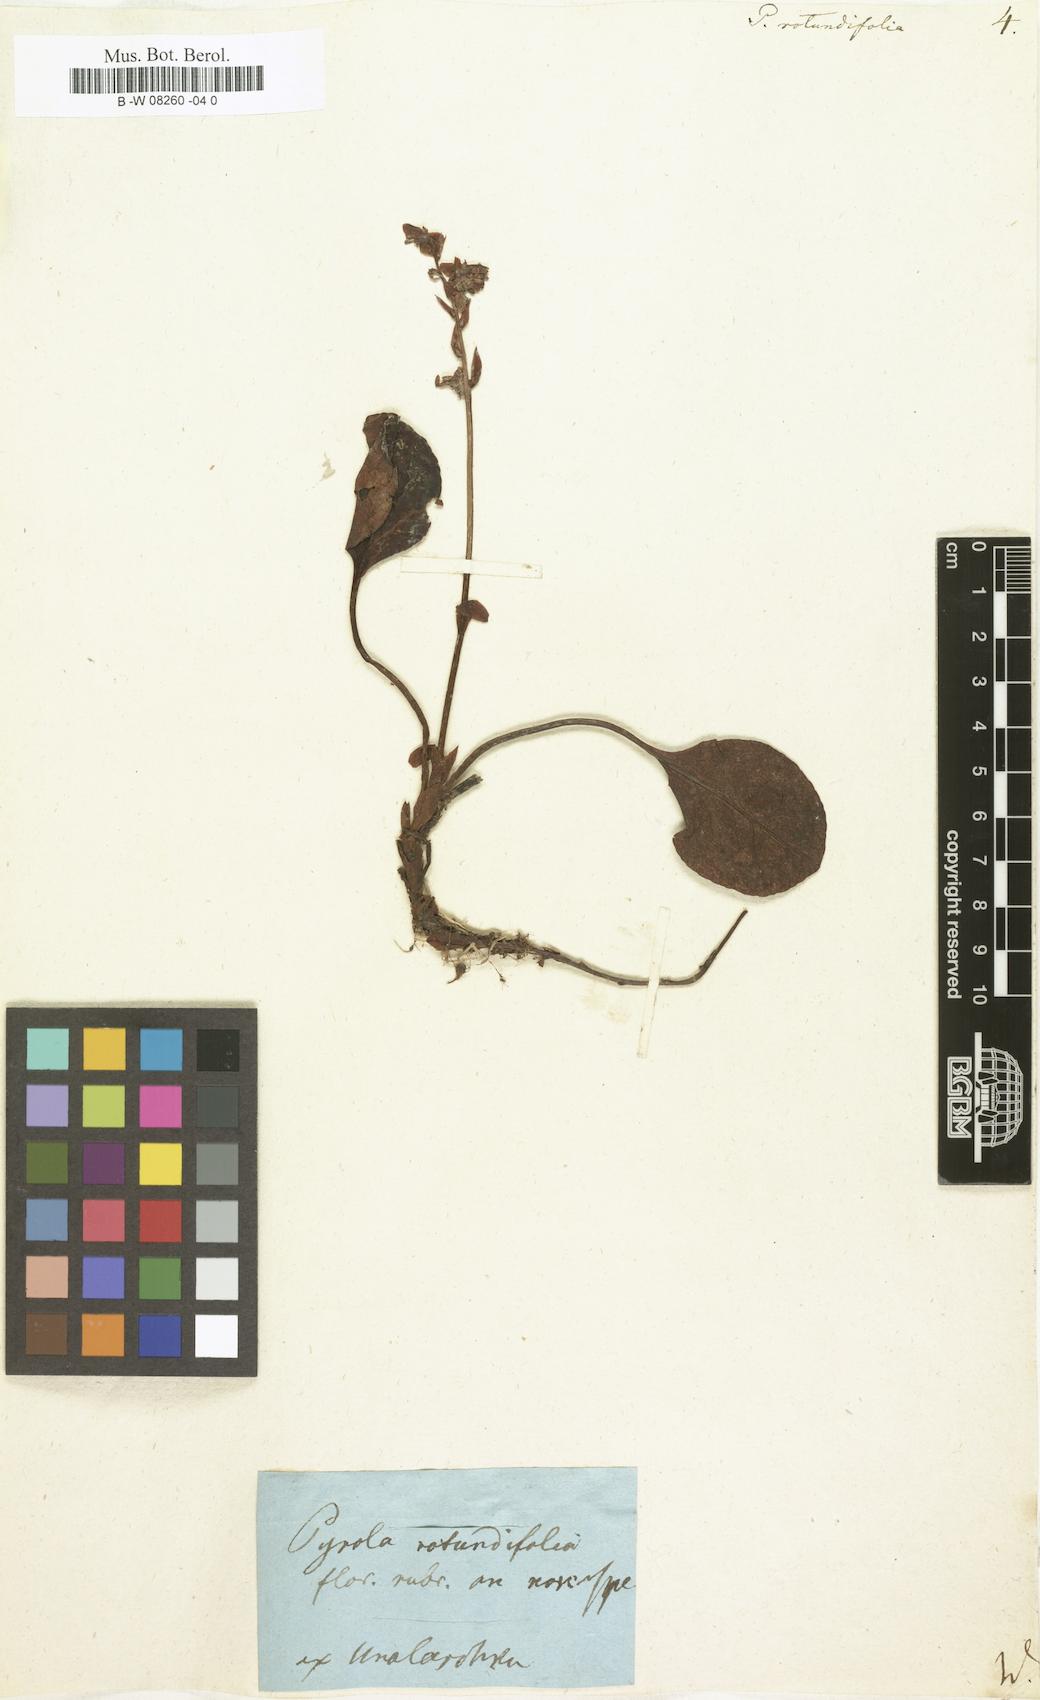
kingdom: Plantae
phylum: Tracheophyta
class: Magnoliopsida
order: Ericales
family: Ericaceae
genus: Pyrola
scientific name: Pyrola rotundifolia
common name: Round-leaved wintergreen
